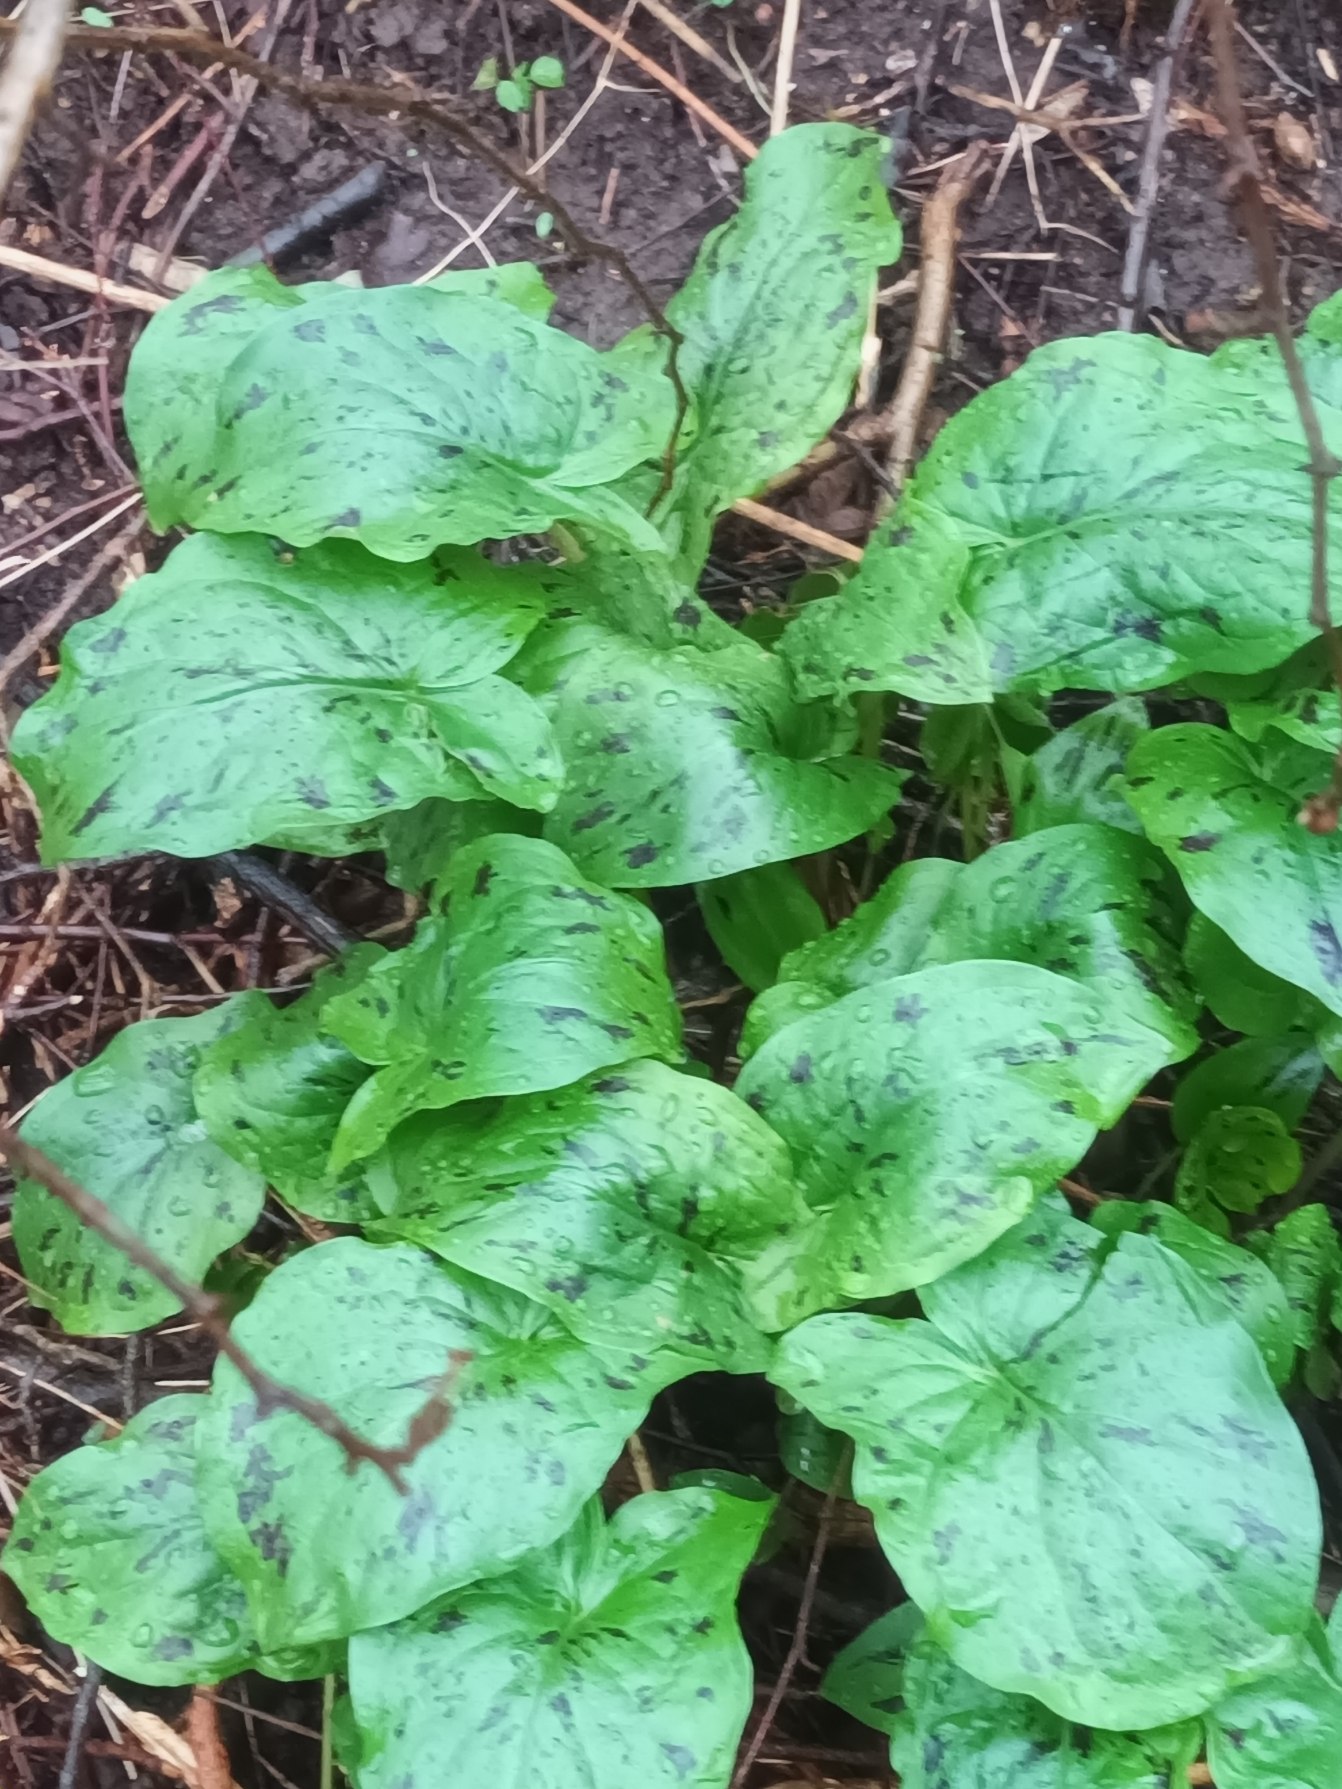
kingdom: Plantae
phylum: Tracheophyta
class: Liliopsida
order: Alismatales
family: Araceae
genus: Arum
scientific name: Arum maculatum
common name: Plettet arum
